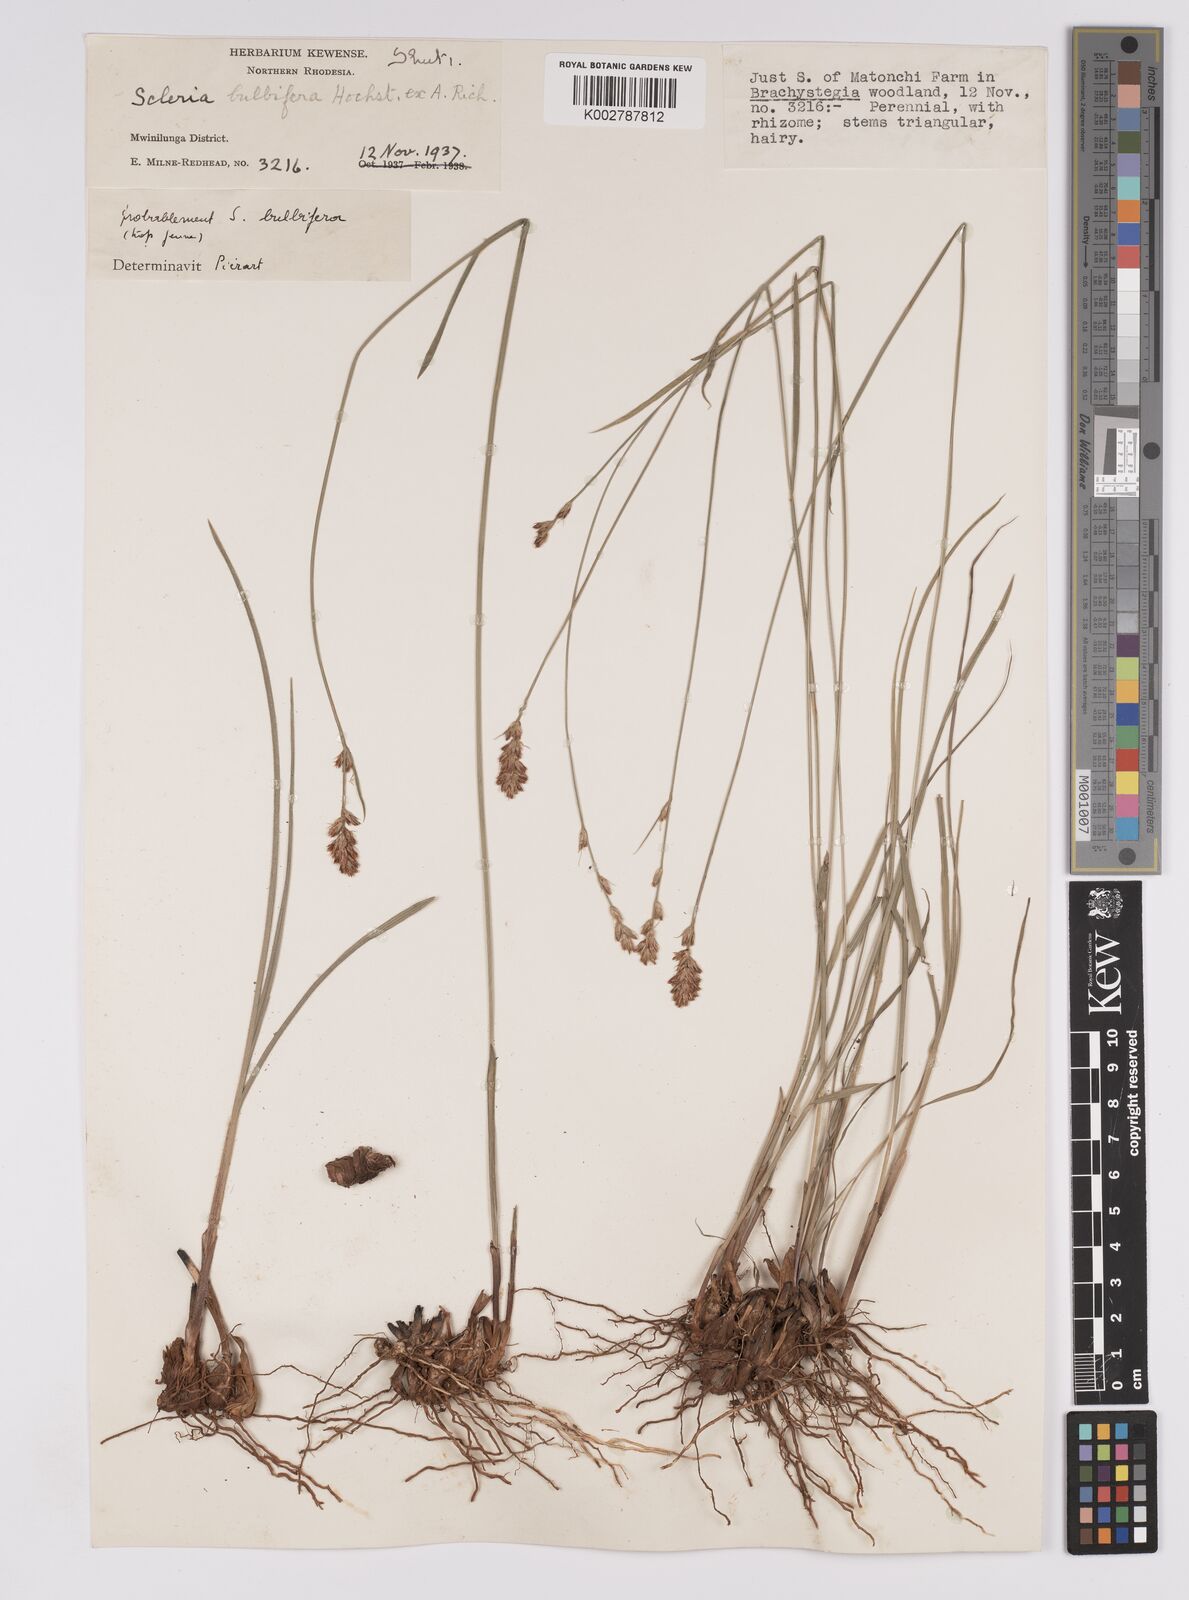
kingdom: Plantae
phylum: Tracheophyta
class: Liliopsida
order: Poales
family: Cyperaceae
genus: Scleria
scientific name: Scleria bulbifera
